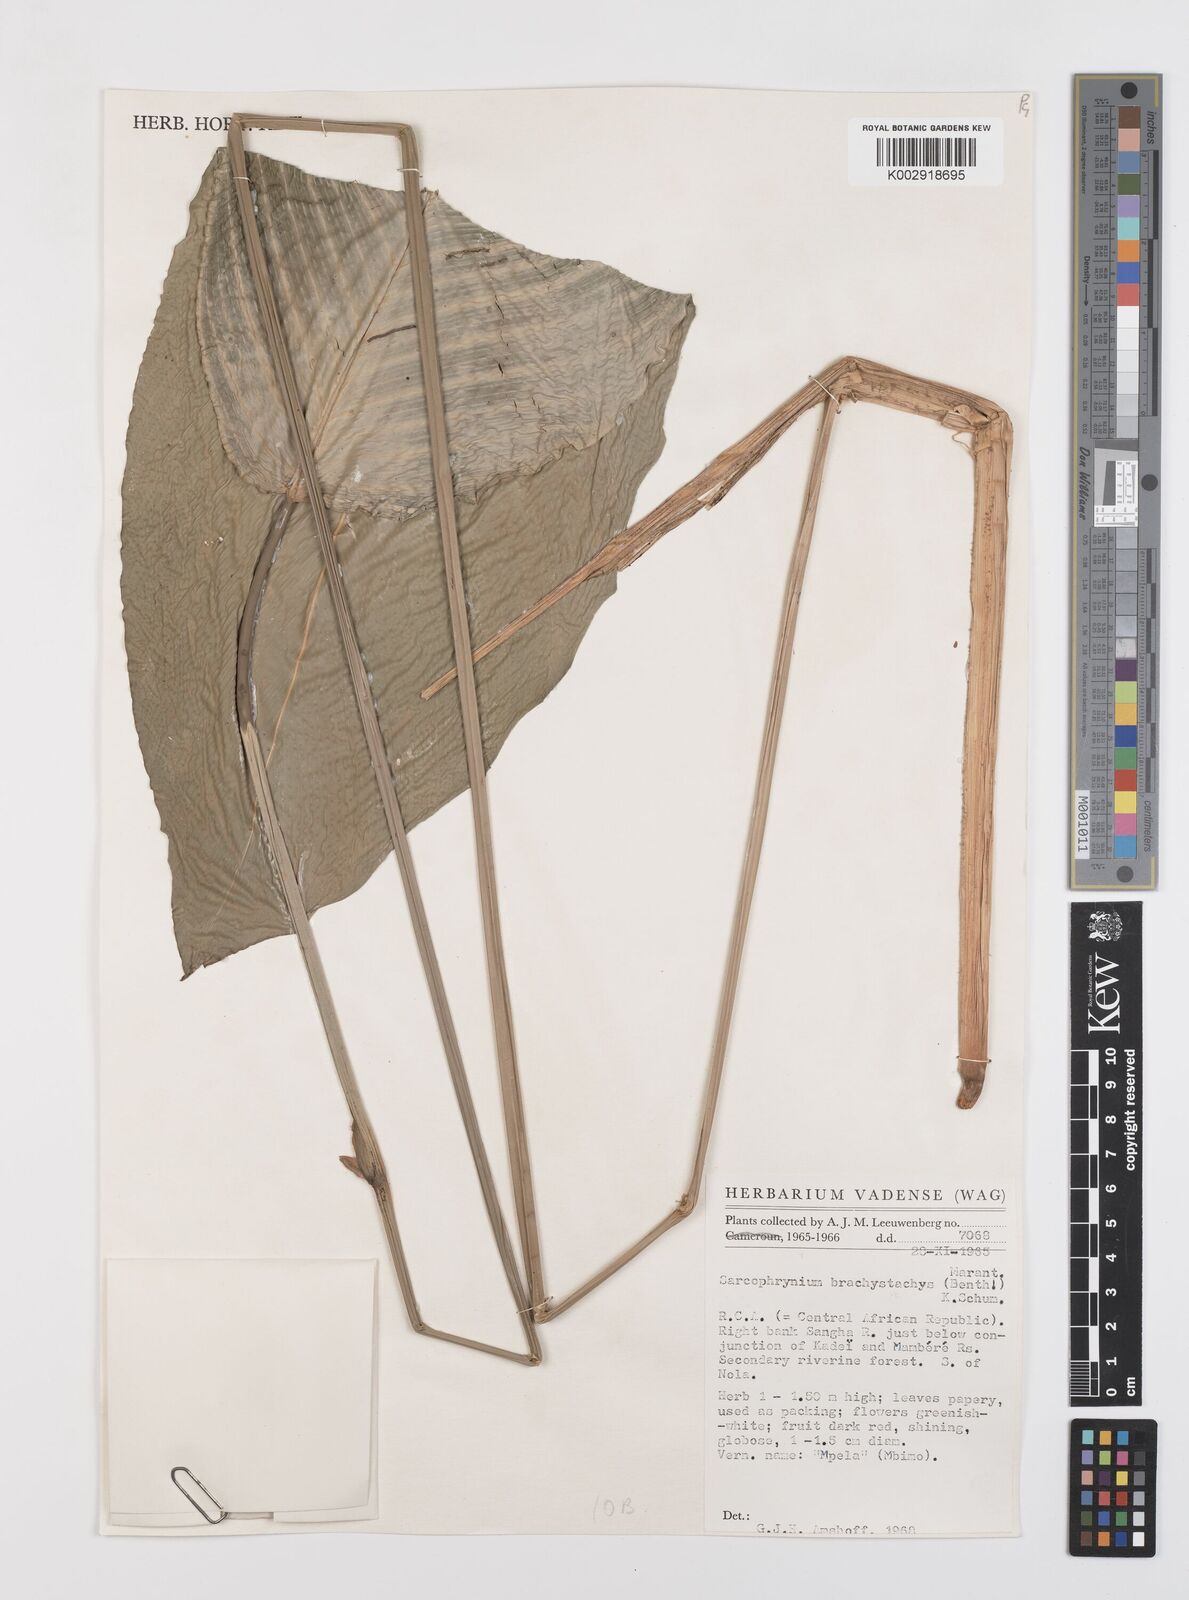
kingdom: Plantae
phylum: Tracheophyta
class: Liliopsida
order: Zingiberales
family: Marantaceae
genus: Sarcophrynium
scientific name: Sarcophrynium brachystachyum
